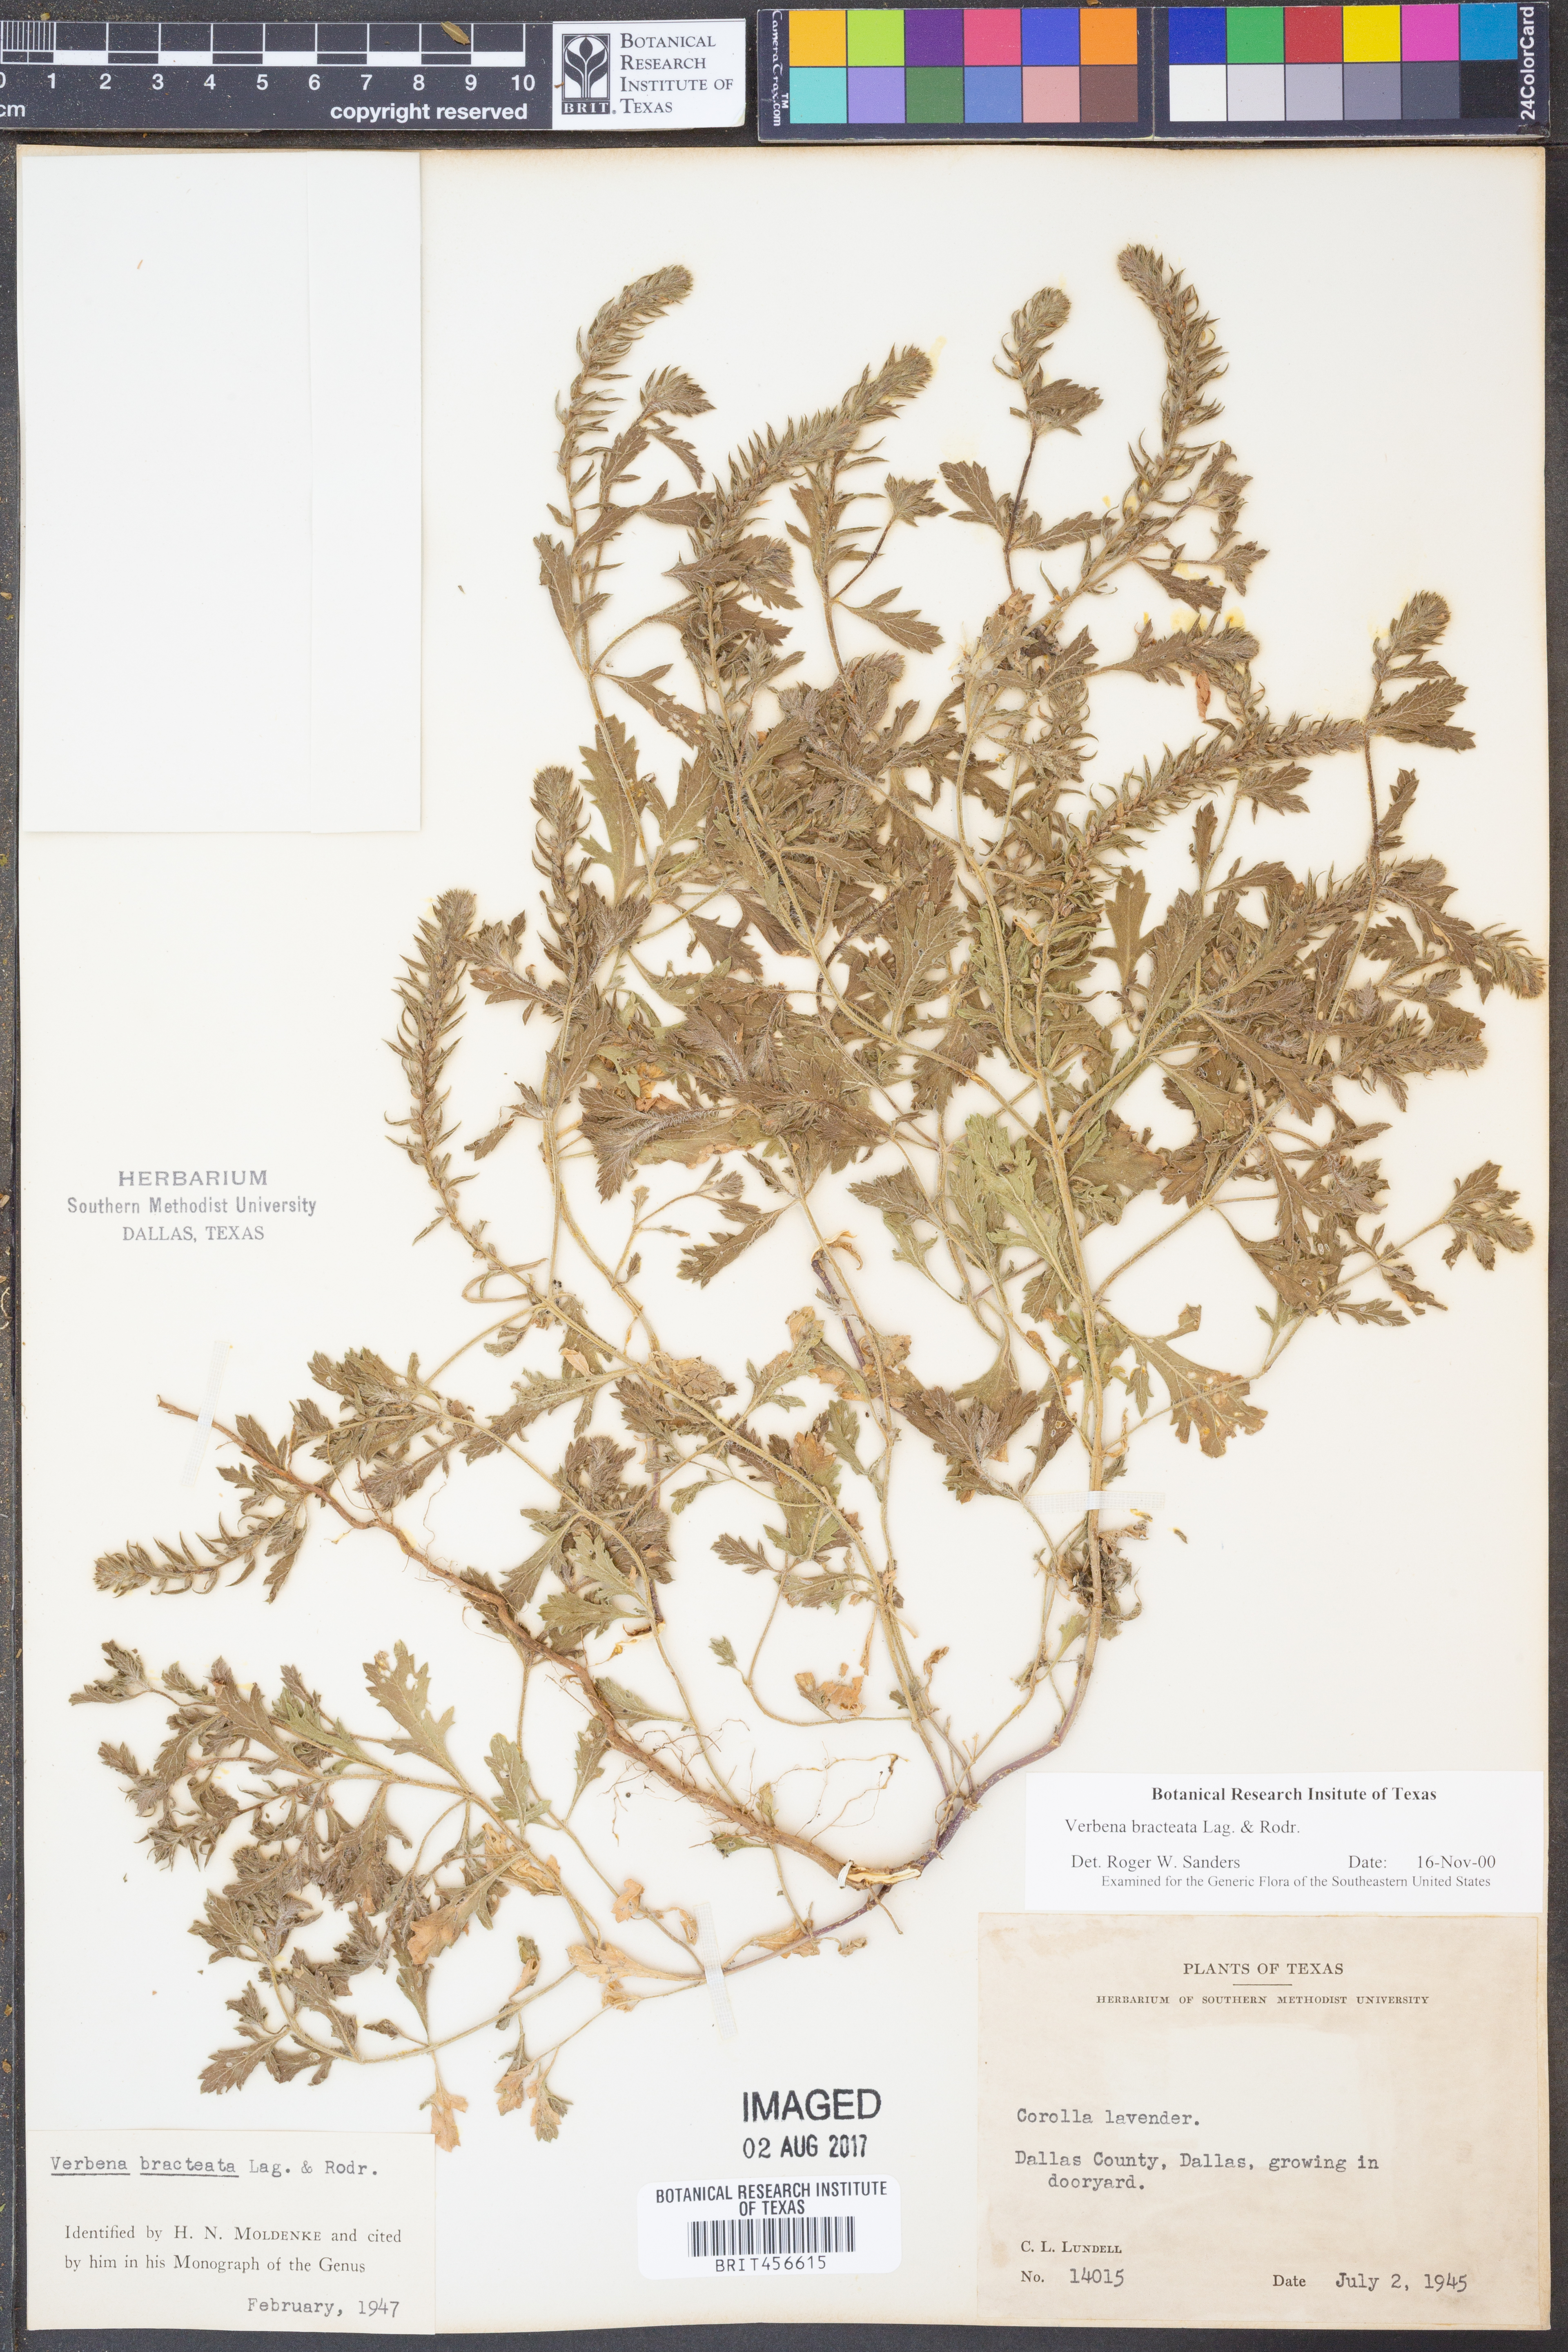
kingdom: Plantae
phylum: Tracheophyta
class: Magnoliopsida
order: Lamiales
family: Verbenaceae
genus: Verbena
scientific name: Verbena bracteata
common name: Bracted vervain
